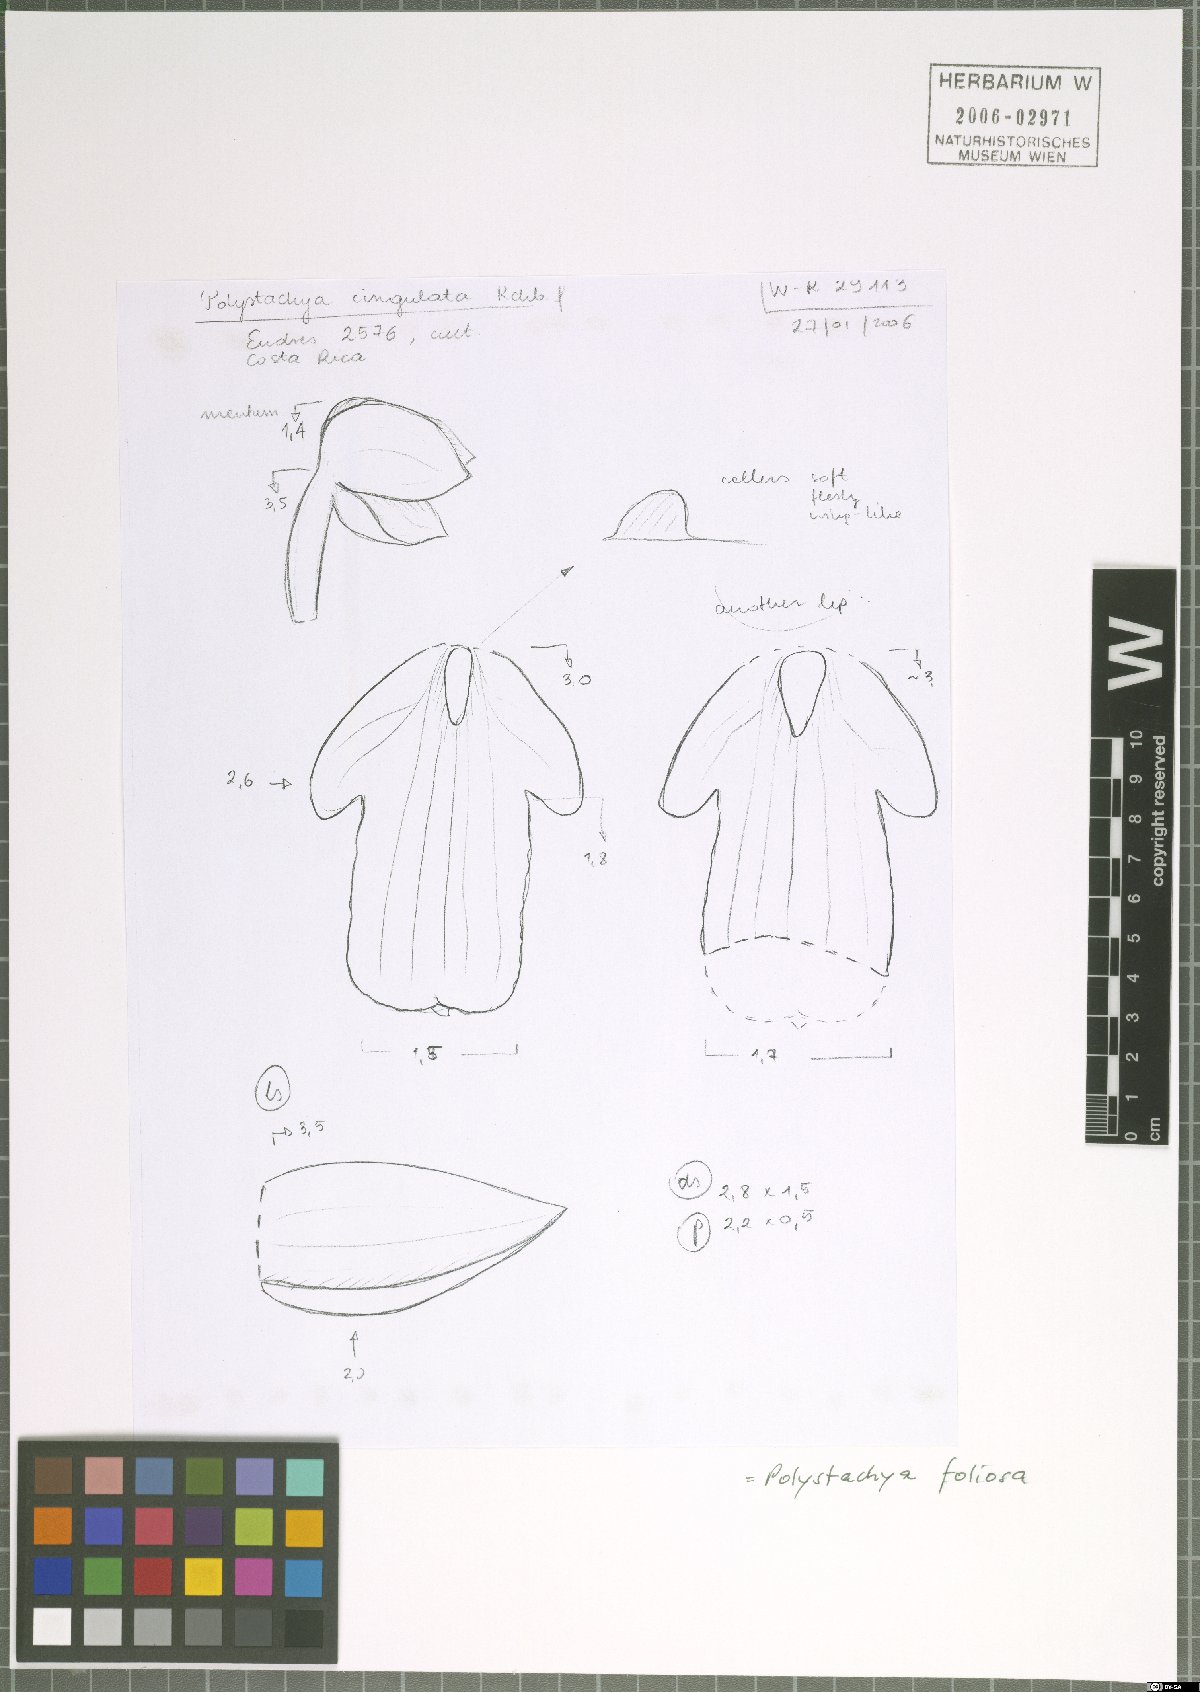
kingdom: Plantae
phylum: Tracheophyta
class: Liliopsida
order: Asparagales
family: Orchidaceae
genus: Polystachya
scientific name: Polystachya foliosa
